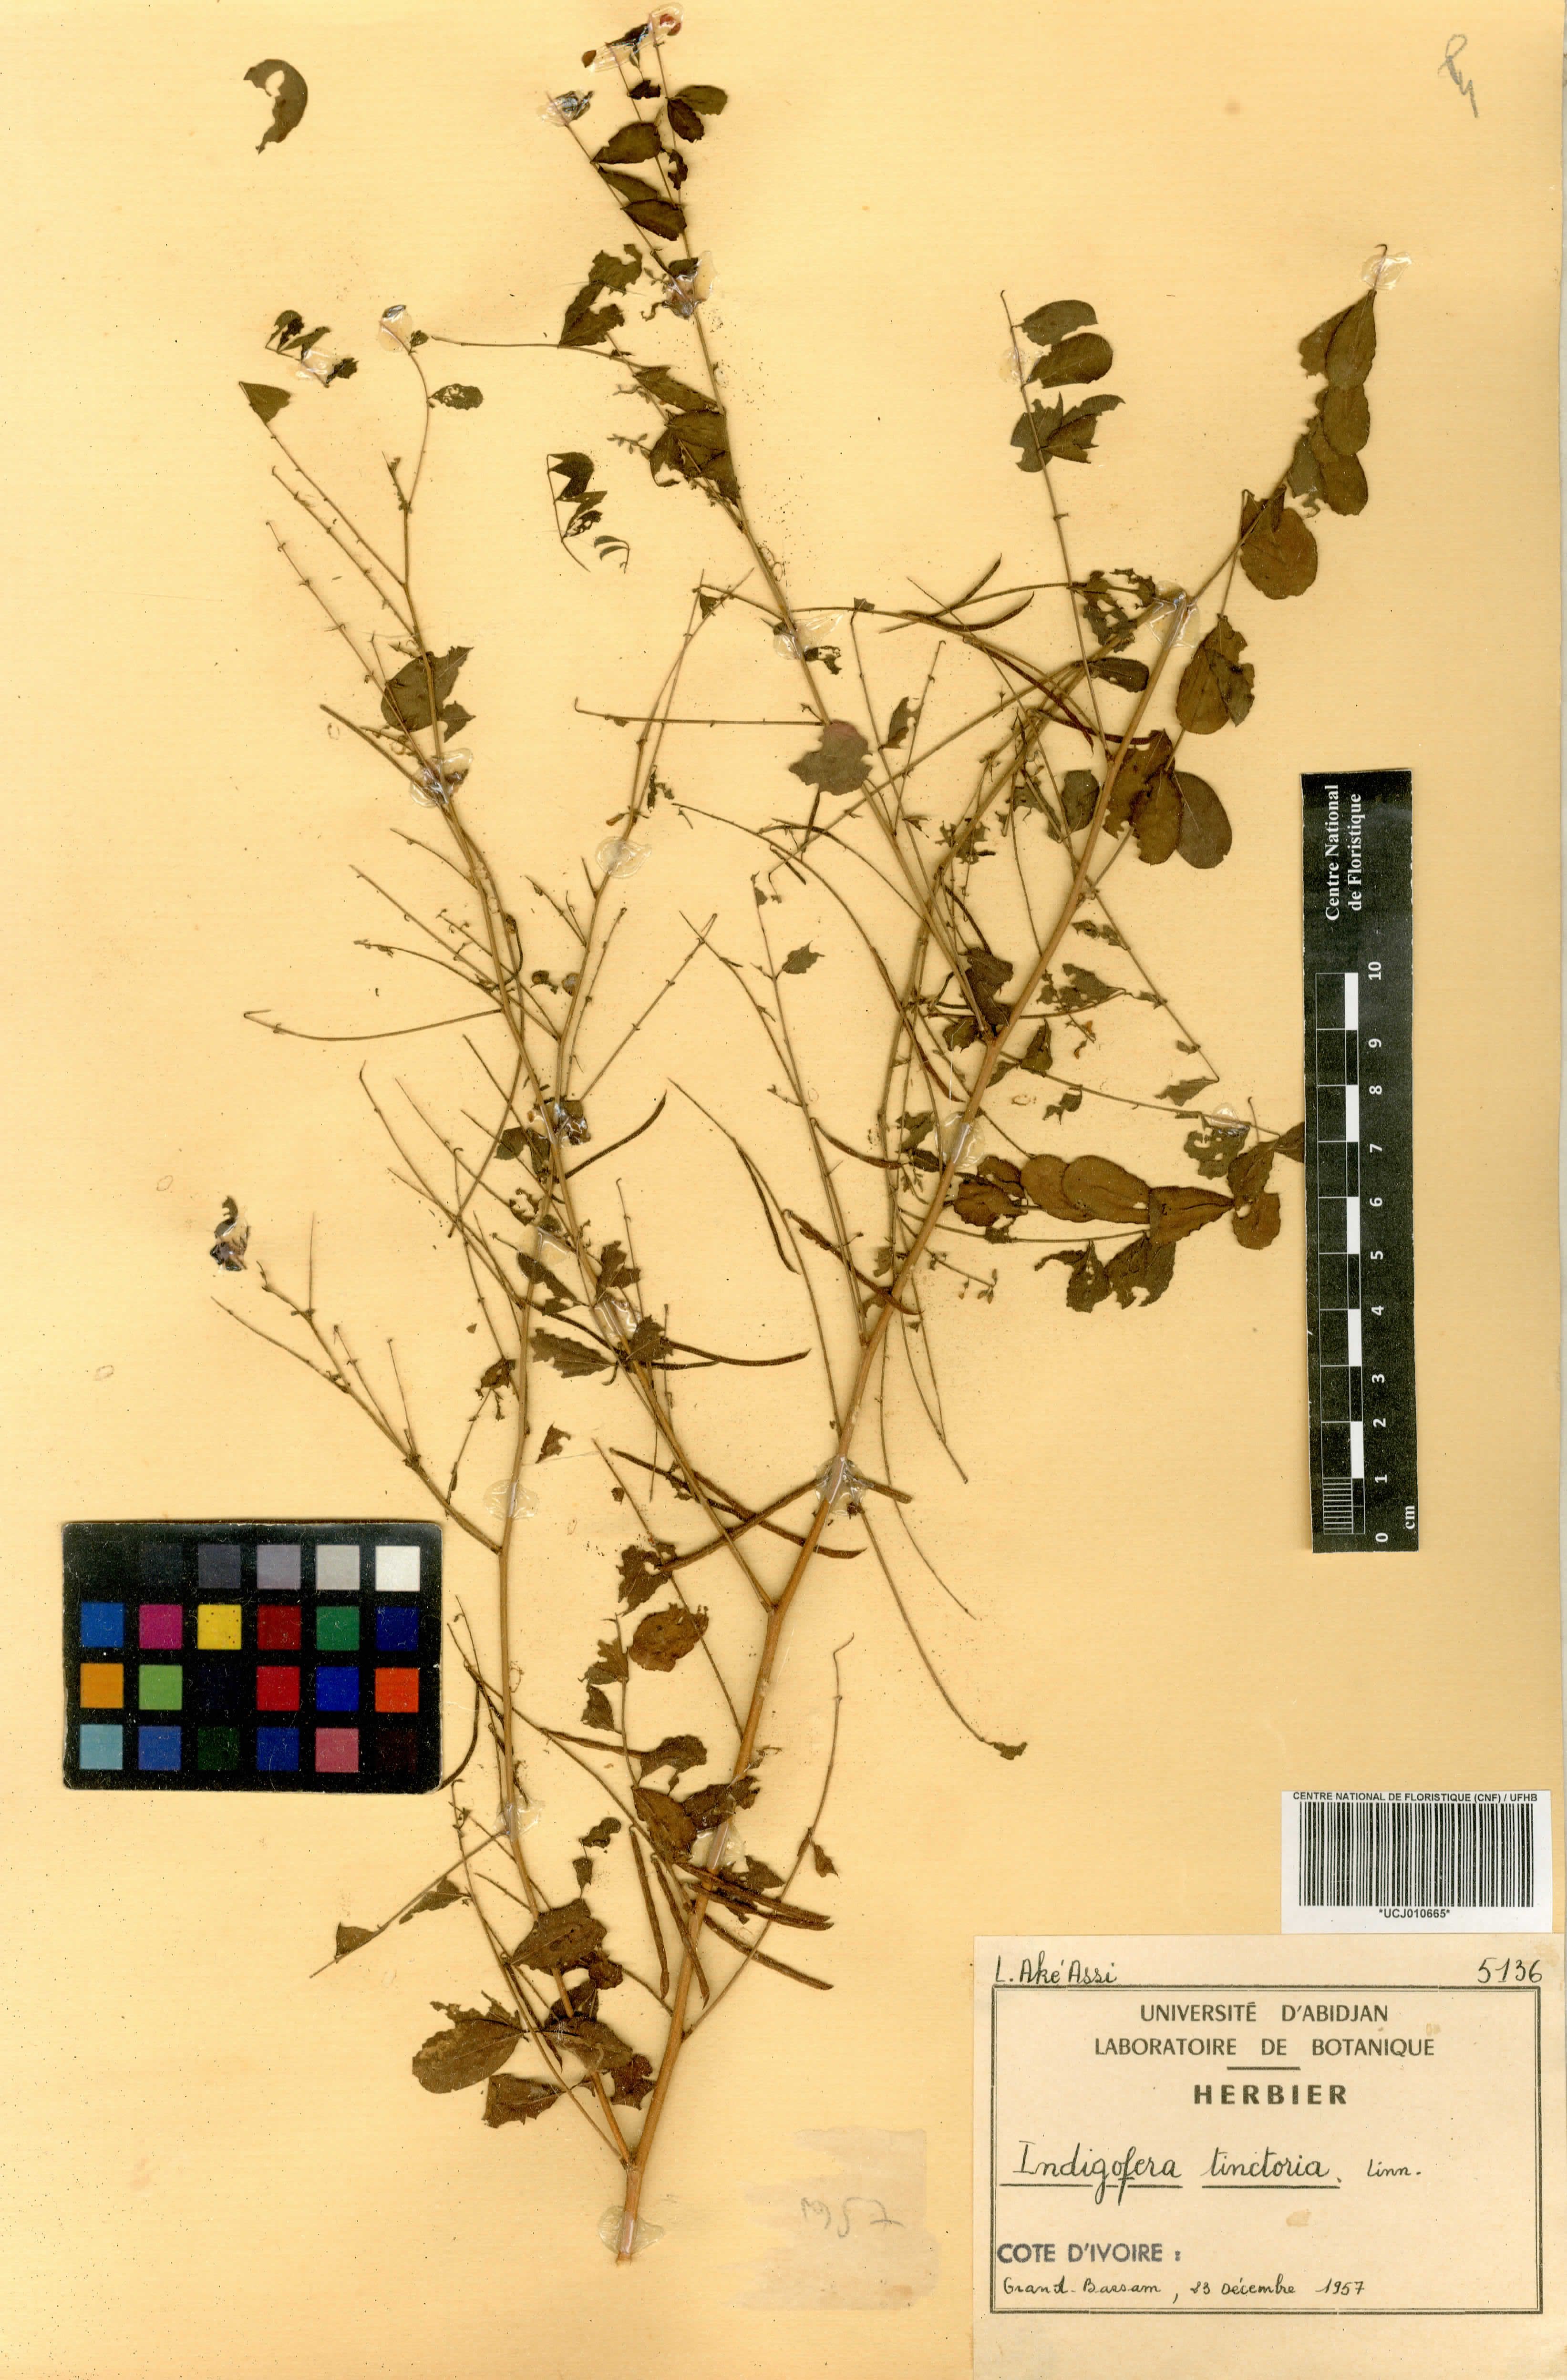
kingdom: Plantae
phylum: Tracheophyta
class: Magnoliopsida
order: Fabales
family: Fabaceae
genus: Indigofera
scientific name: Indigofera tinctoria
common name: True indigo
